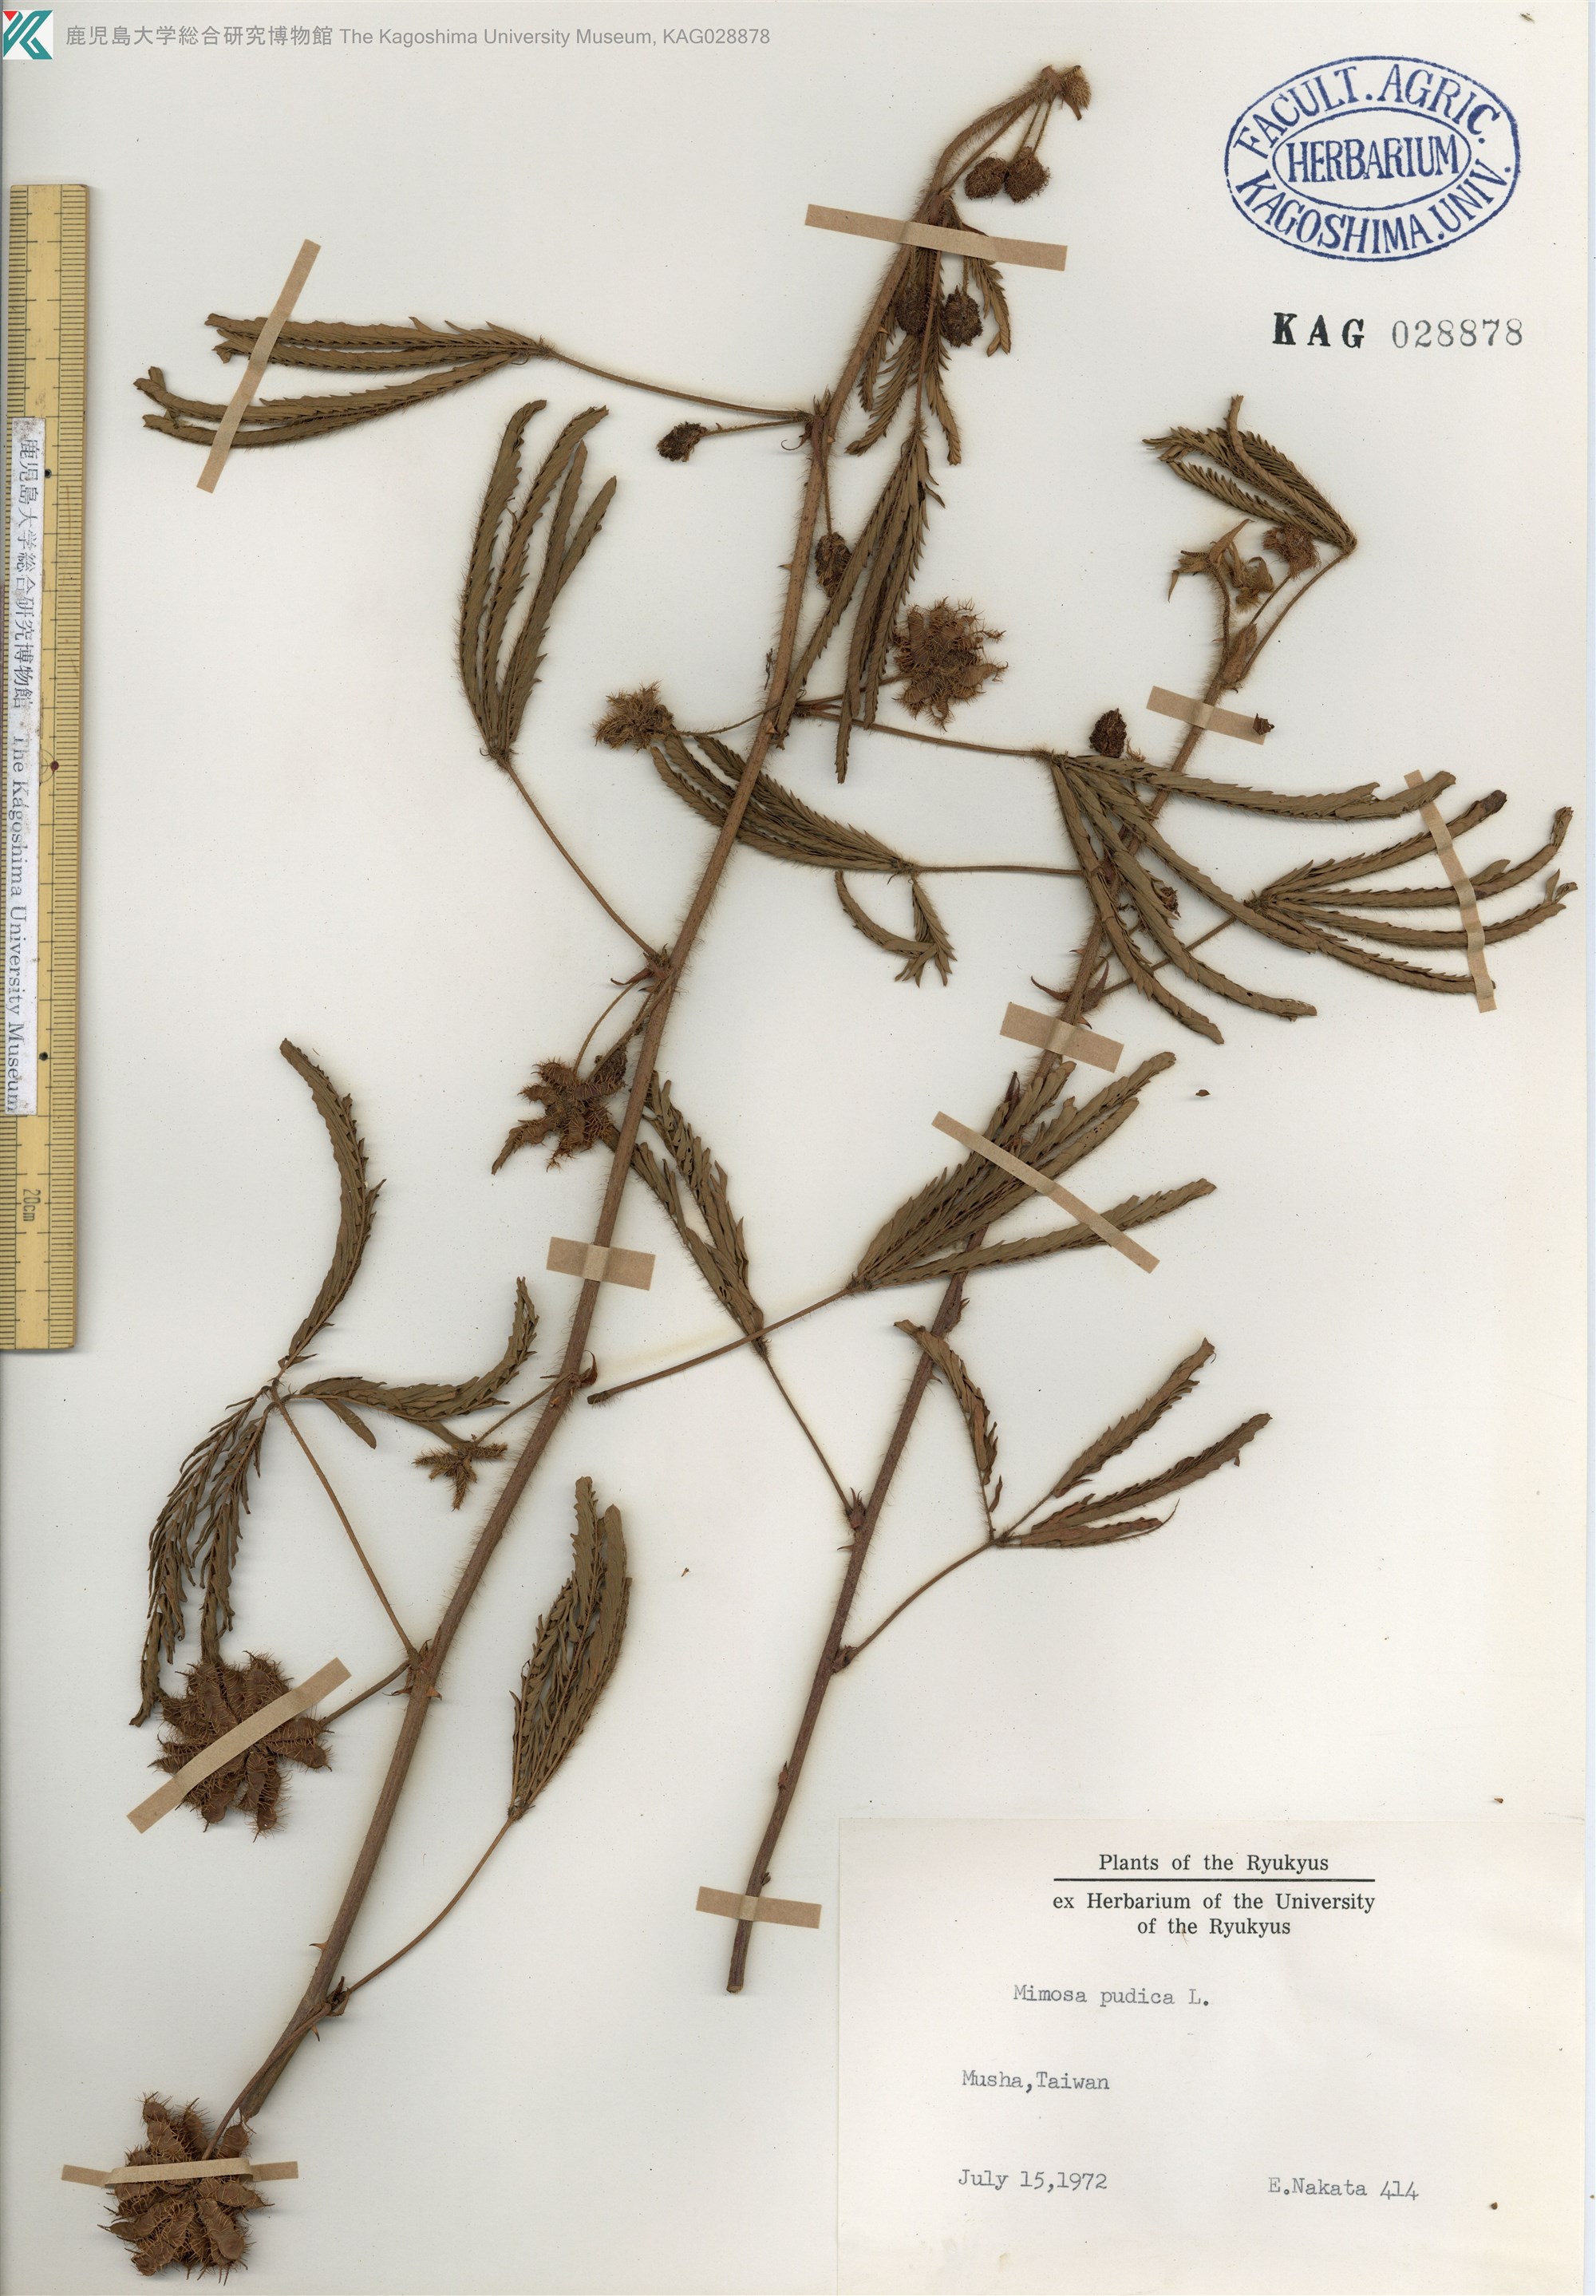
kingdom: Plantae
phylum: Tracheophyta
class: Magnoliopsida
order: Fabales
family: Fabaceae
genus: Mimosa
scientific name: Mimosa pudica
